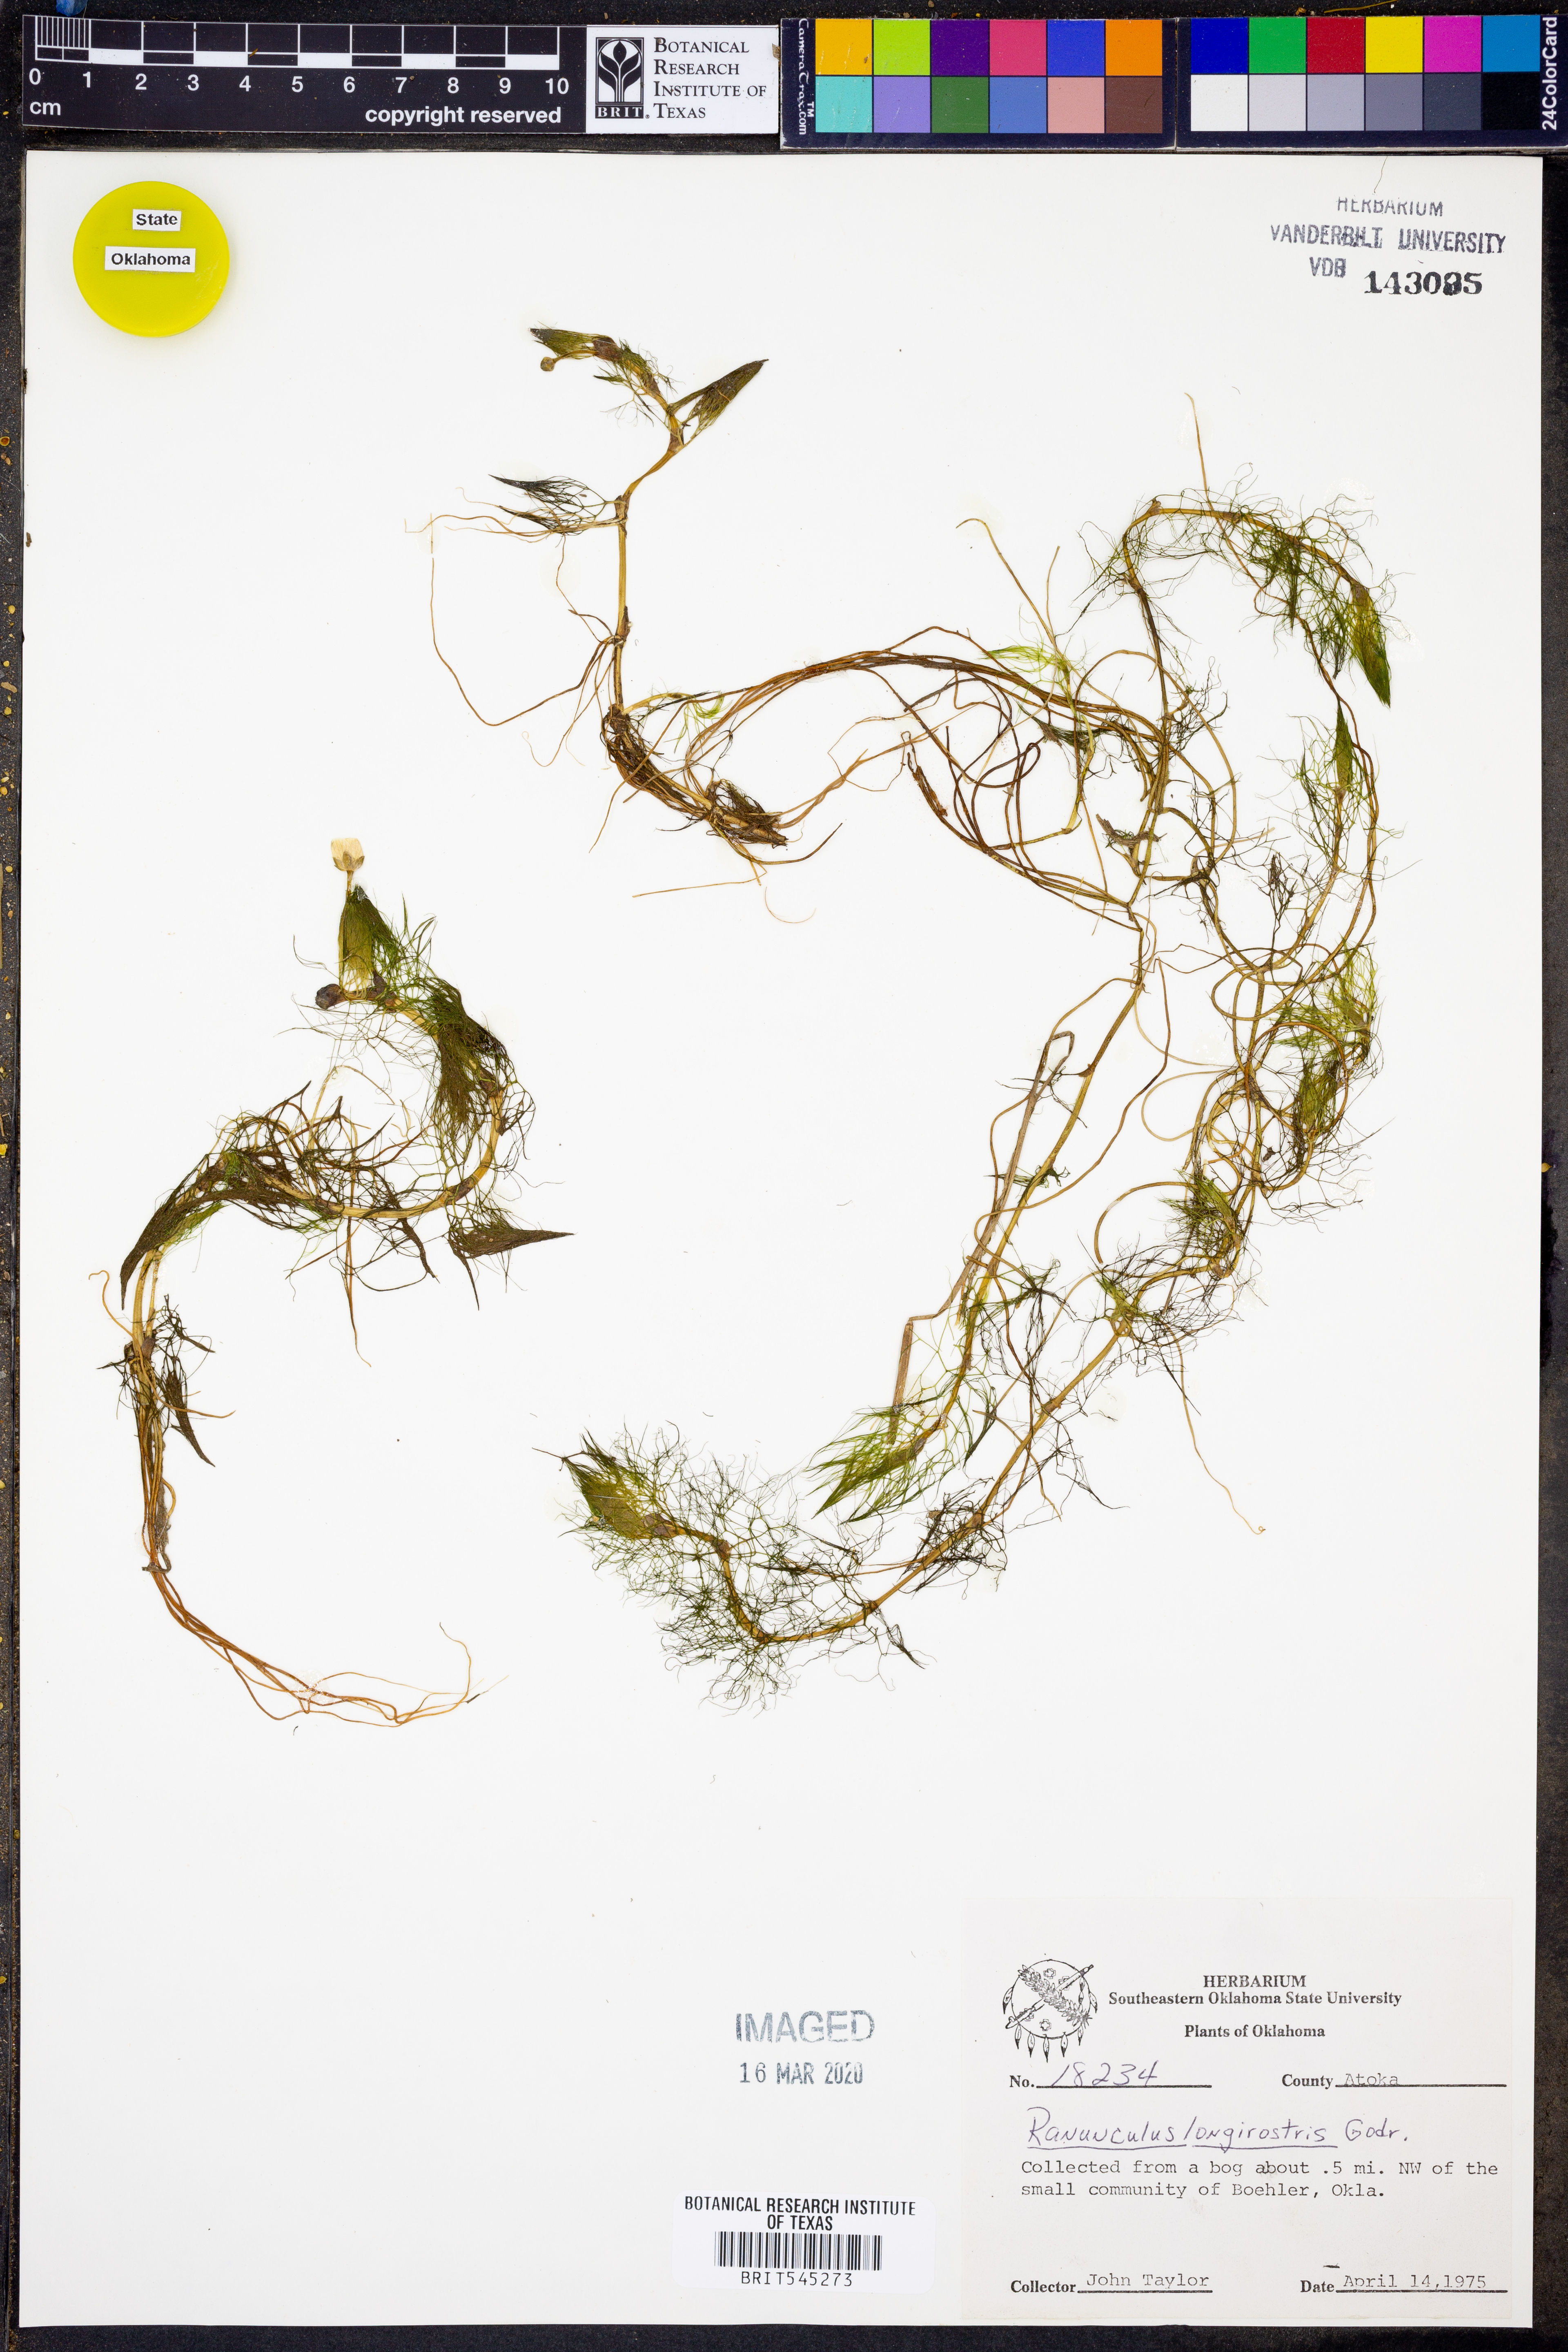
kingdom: Plantae
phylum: Tracheophyta
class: Magnoliopsida
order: Ranunculales
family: Ranunculaceae
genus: Ranunculus
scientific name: Ranunculus longirostris
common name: Curly white water-crowfoot
